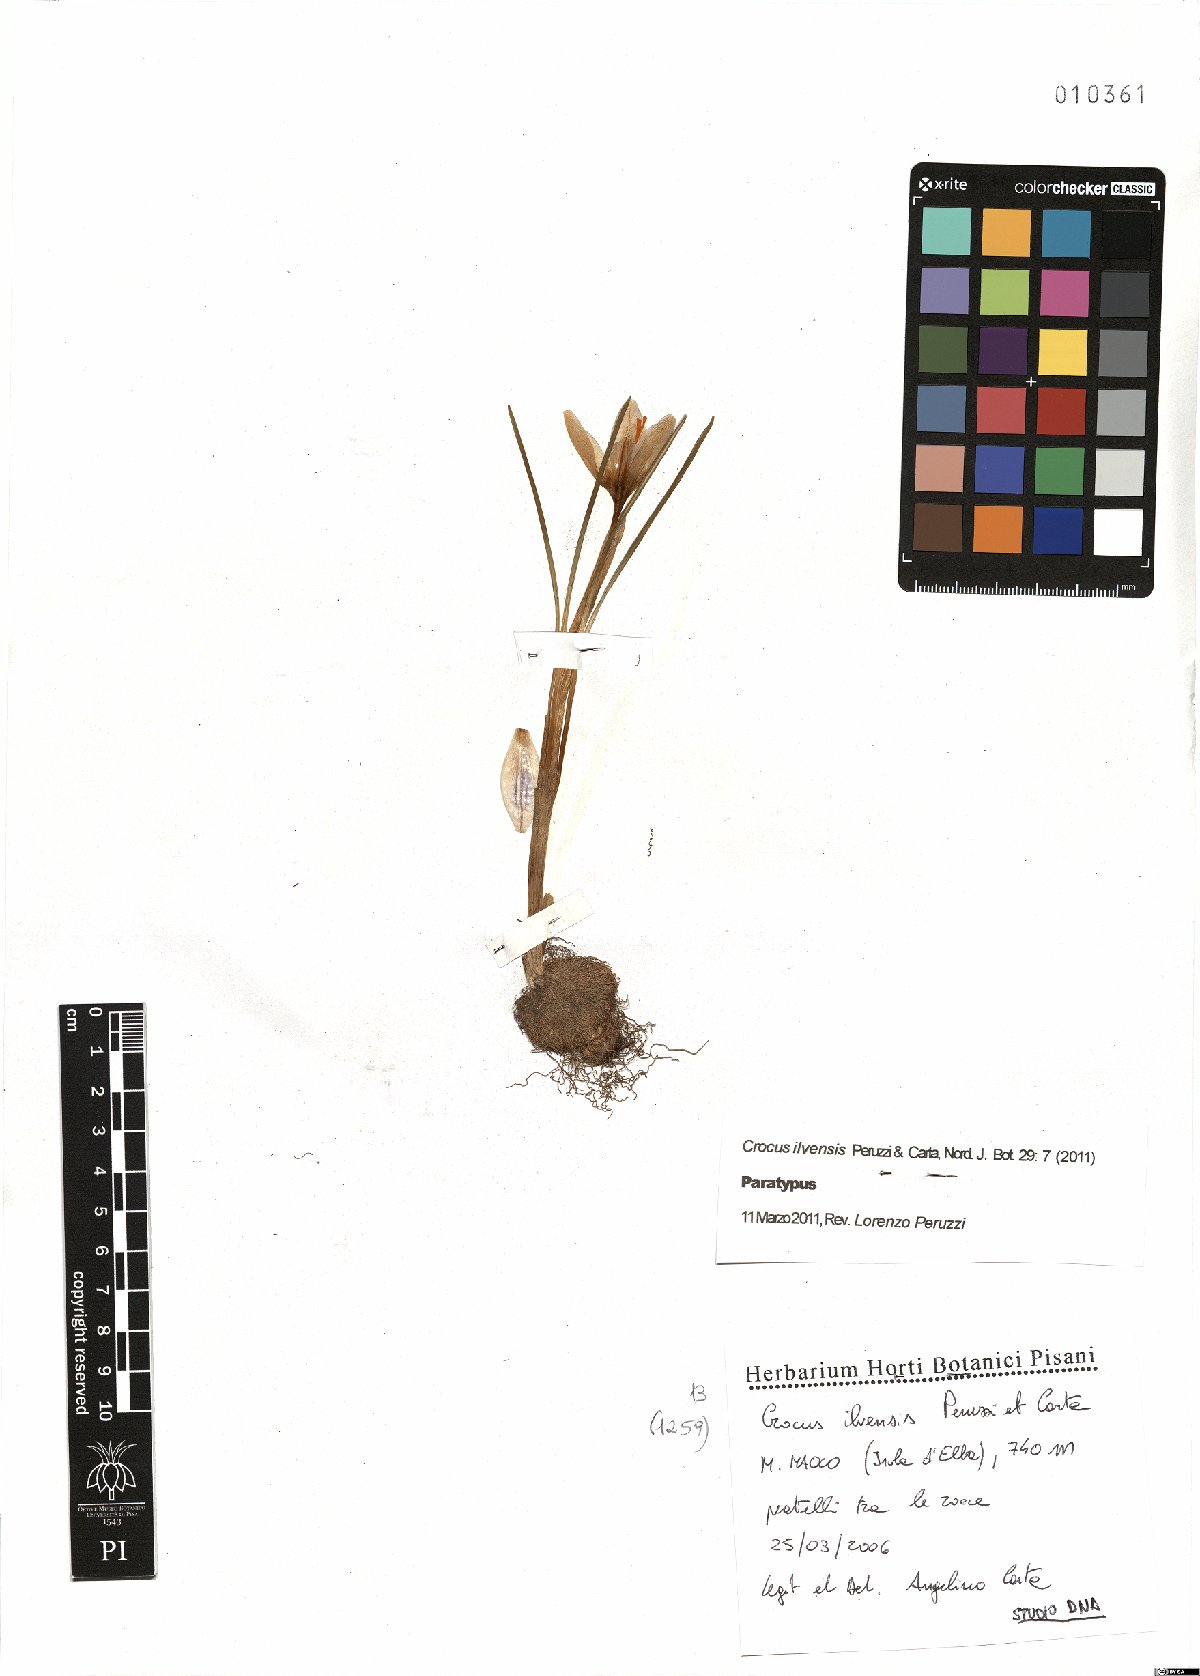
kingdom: Plantae
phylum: Tracheophyta
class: Liliopsida
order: Asparagales
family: Iridaceae
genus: Crocus
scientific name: Crocus ilvensis
